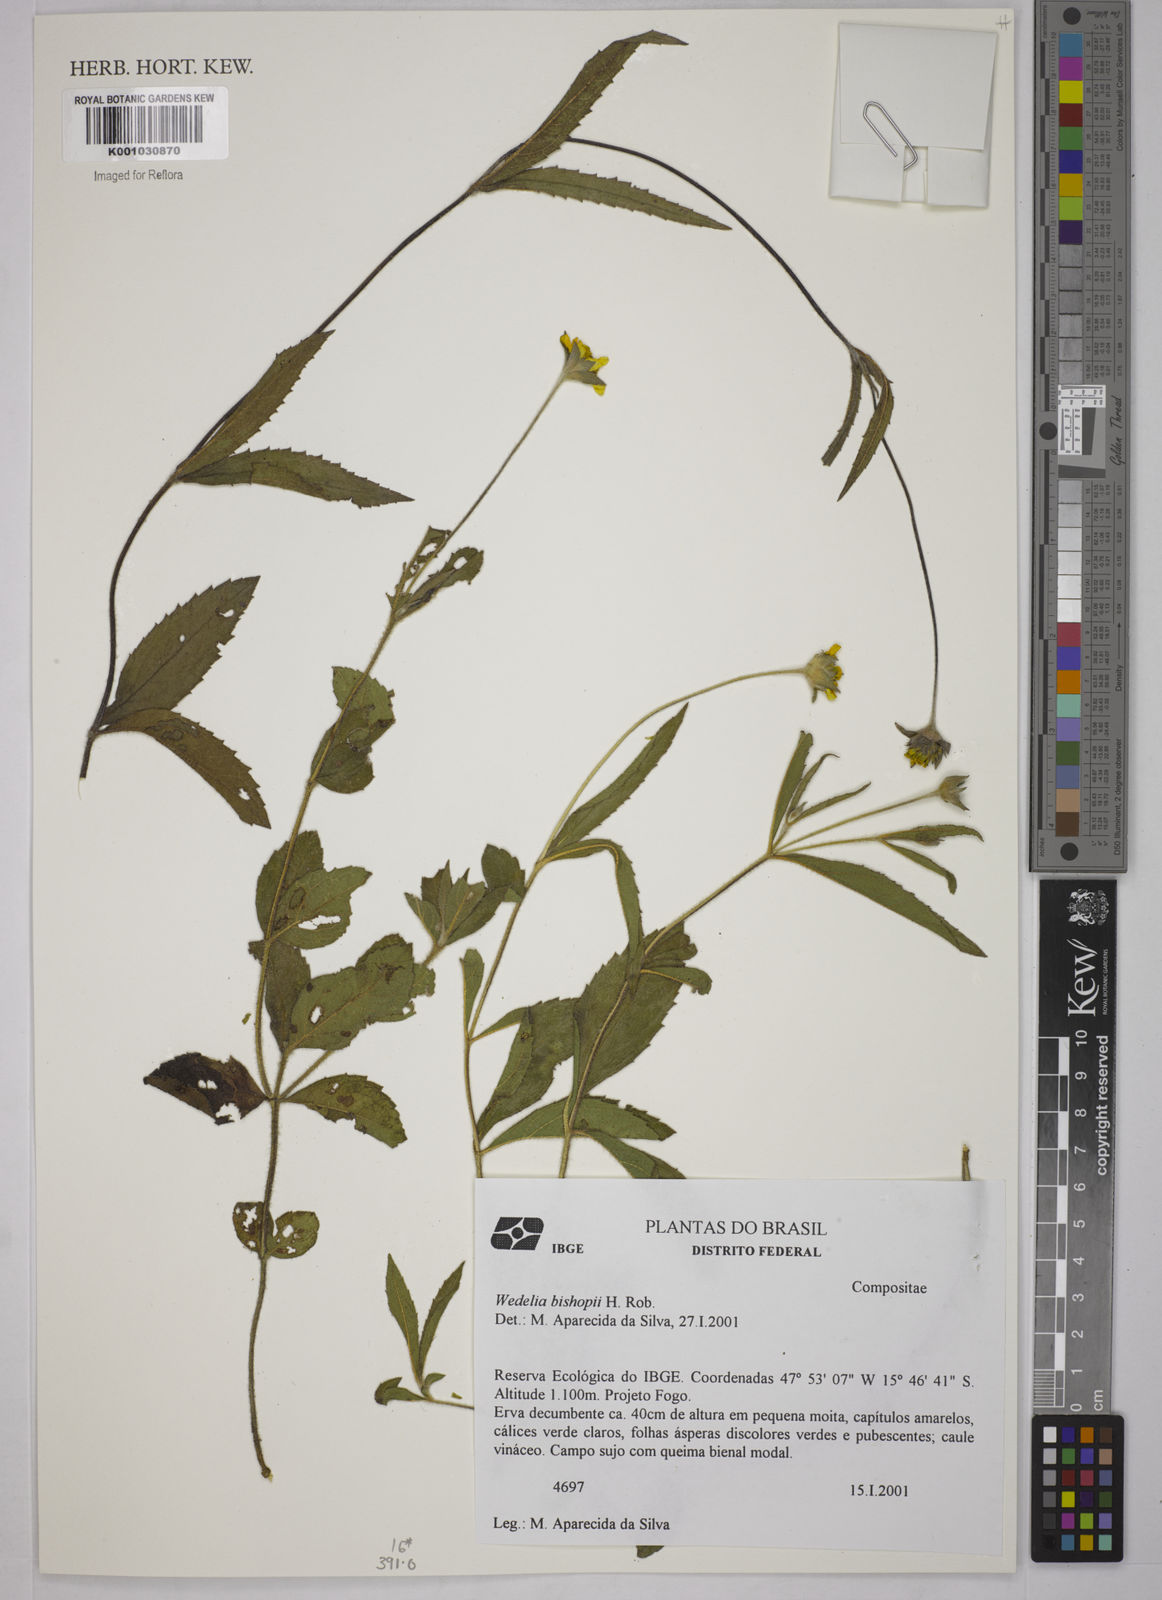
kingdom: Plantae
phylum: Tracheophyta
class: Magnoliopsida
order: Asterales
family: Asteraceae
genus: Wedelia
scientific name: Wedelia bishopii
